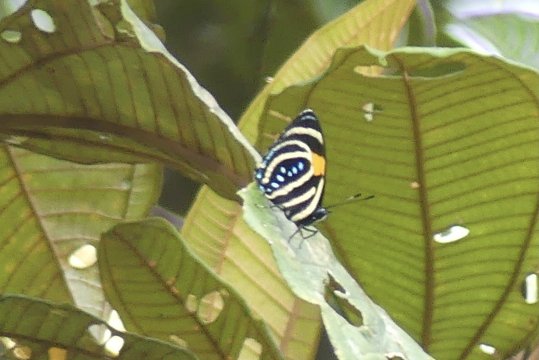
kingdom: Animalia
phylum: Arthropoda
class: Insecta
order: Lepidoptera
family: Nymphalidae
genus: Catagramma
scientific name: Catagramma Callicore lyca
